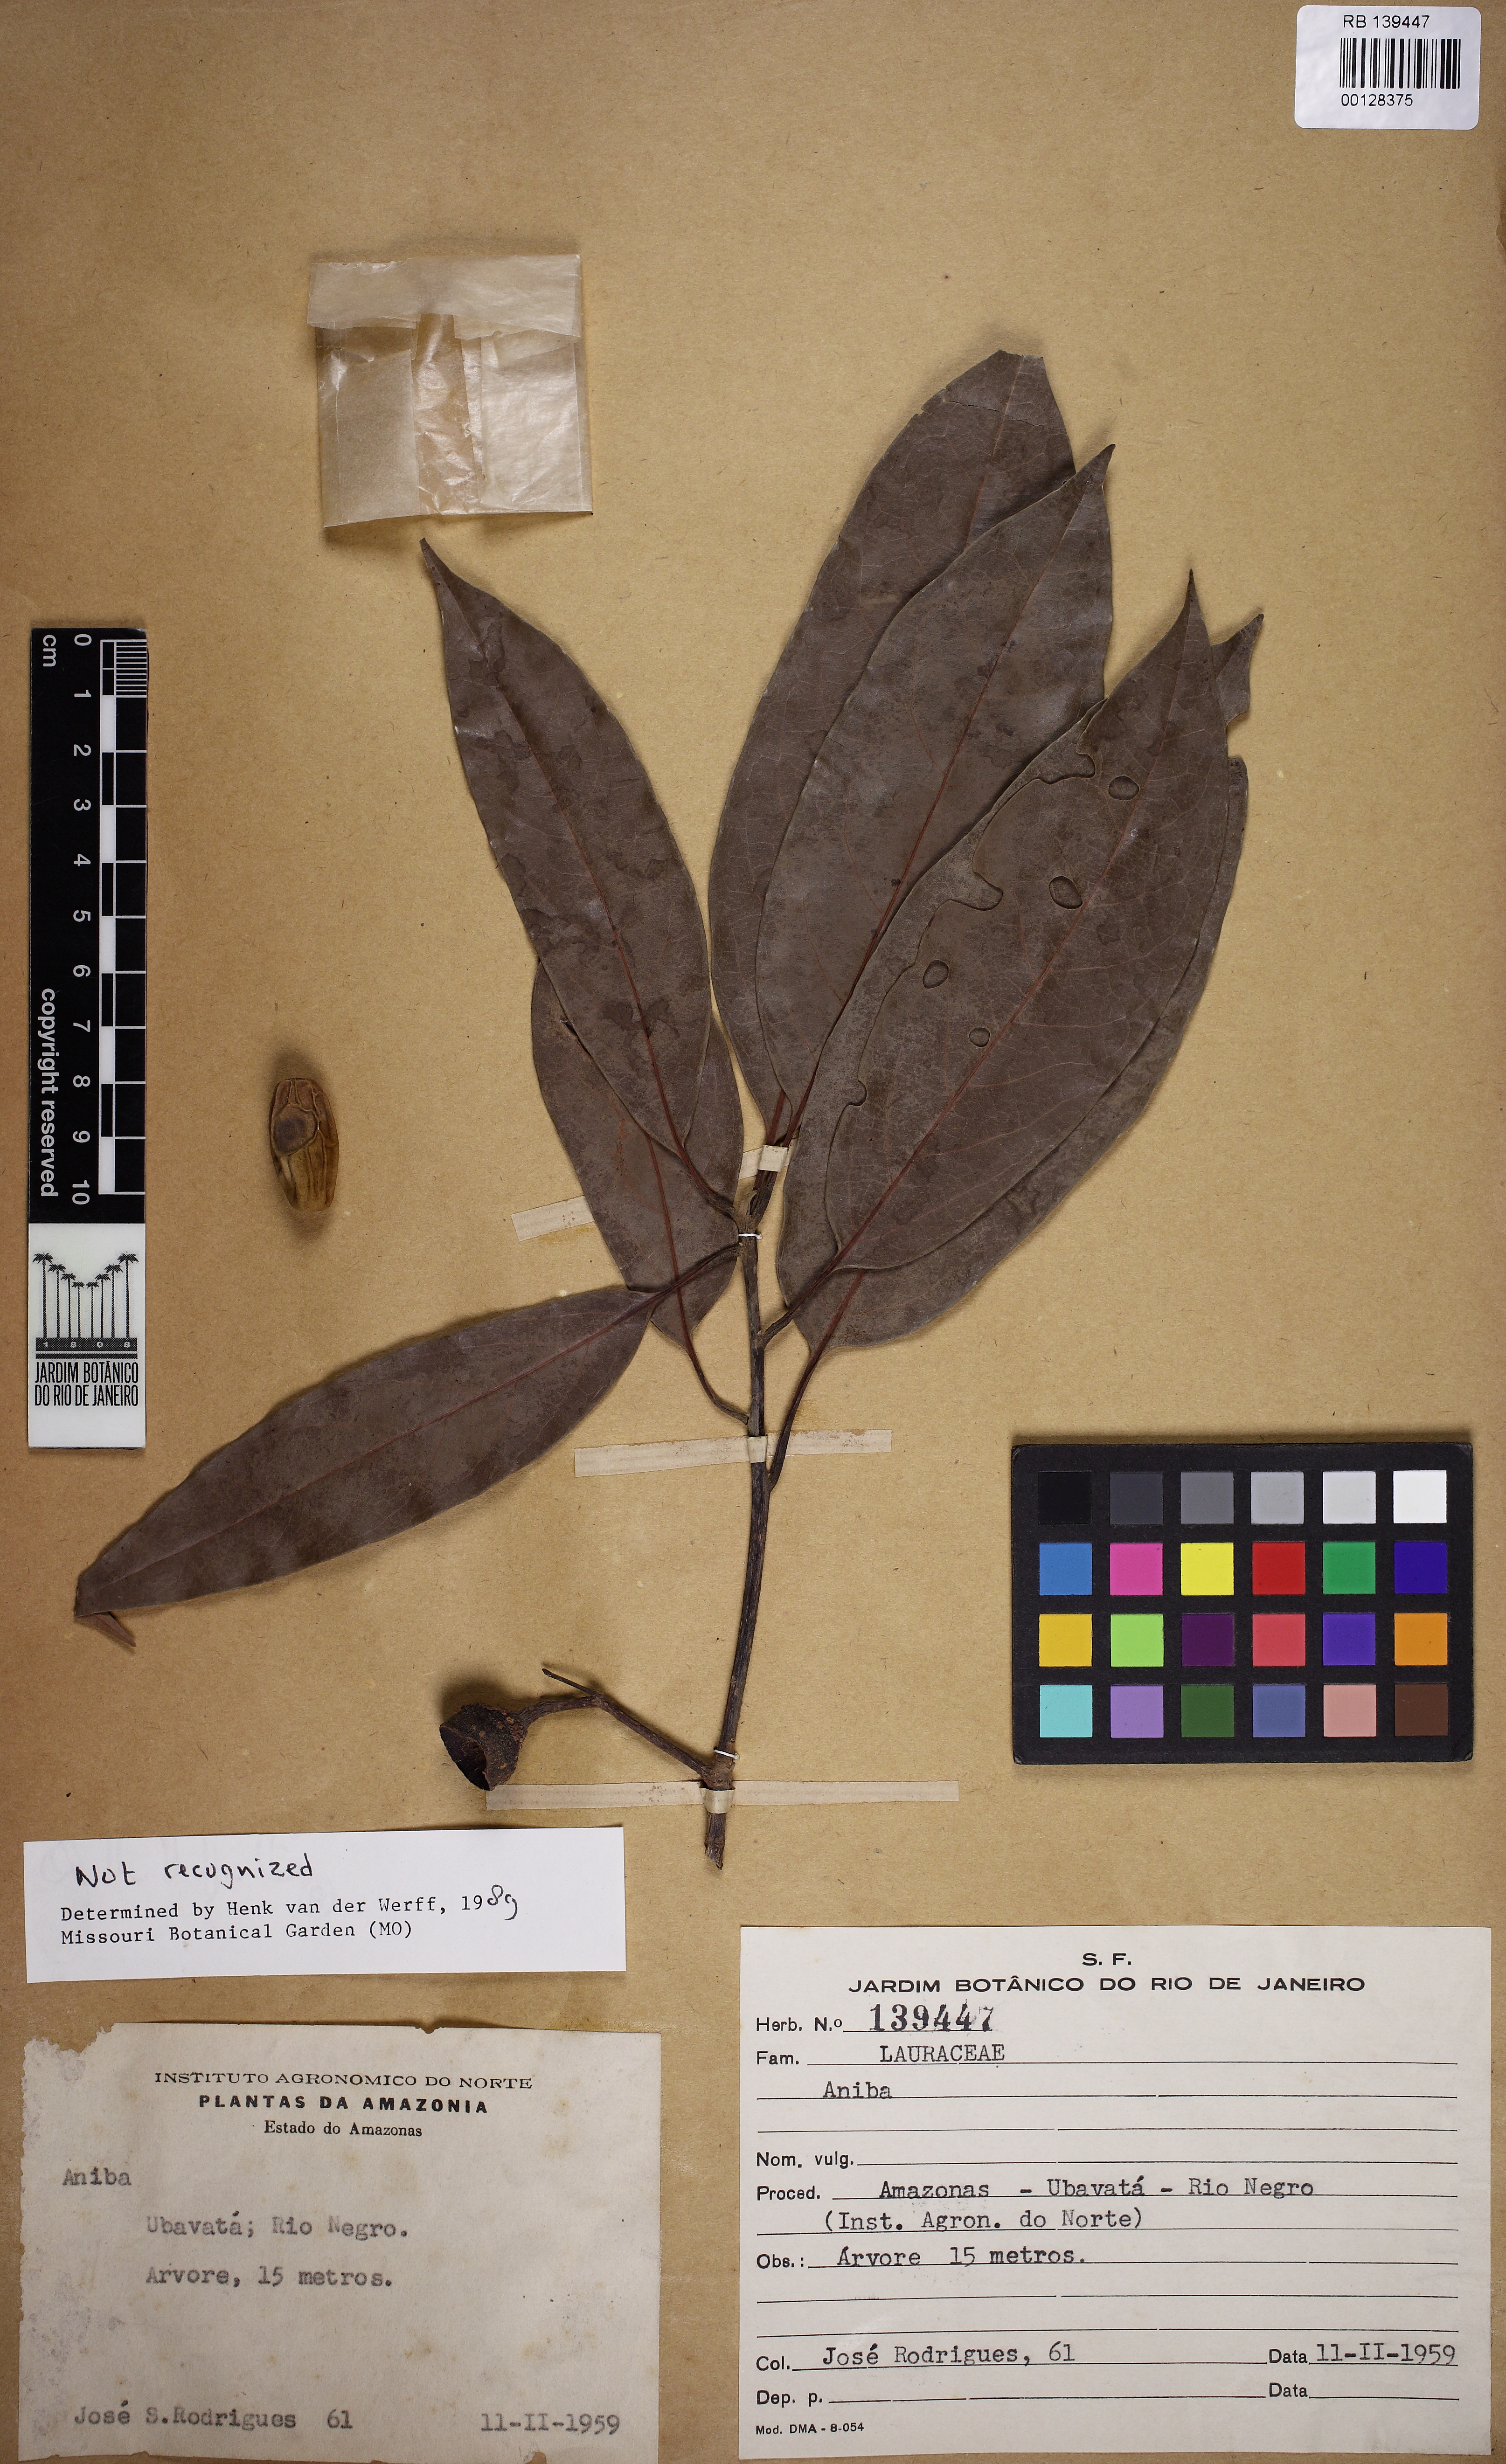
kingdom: Plantae
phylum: Tracheophyta
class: Magnoliopsida
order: Laurales
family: Lauraceae
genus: Aniba
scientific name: Aniba
